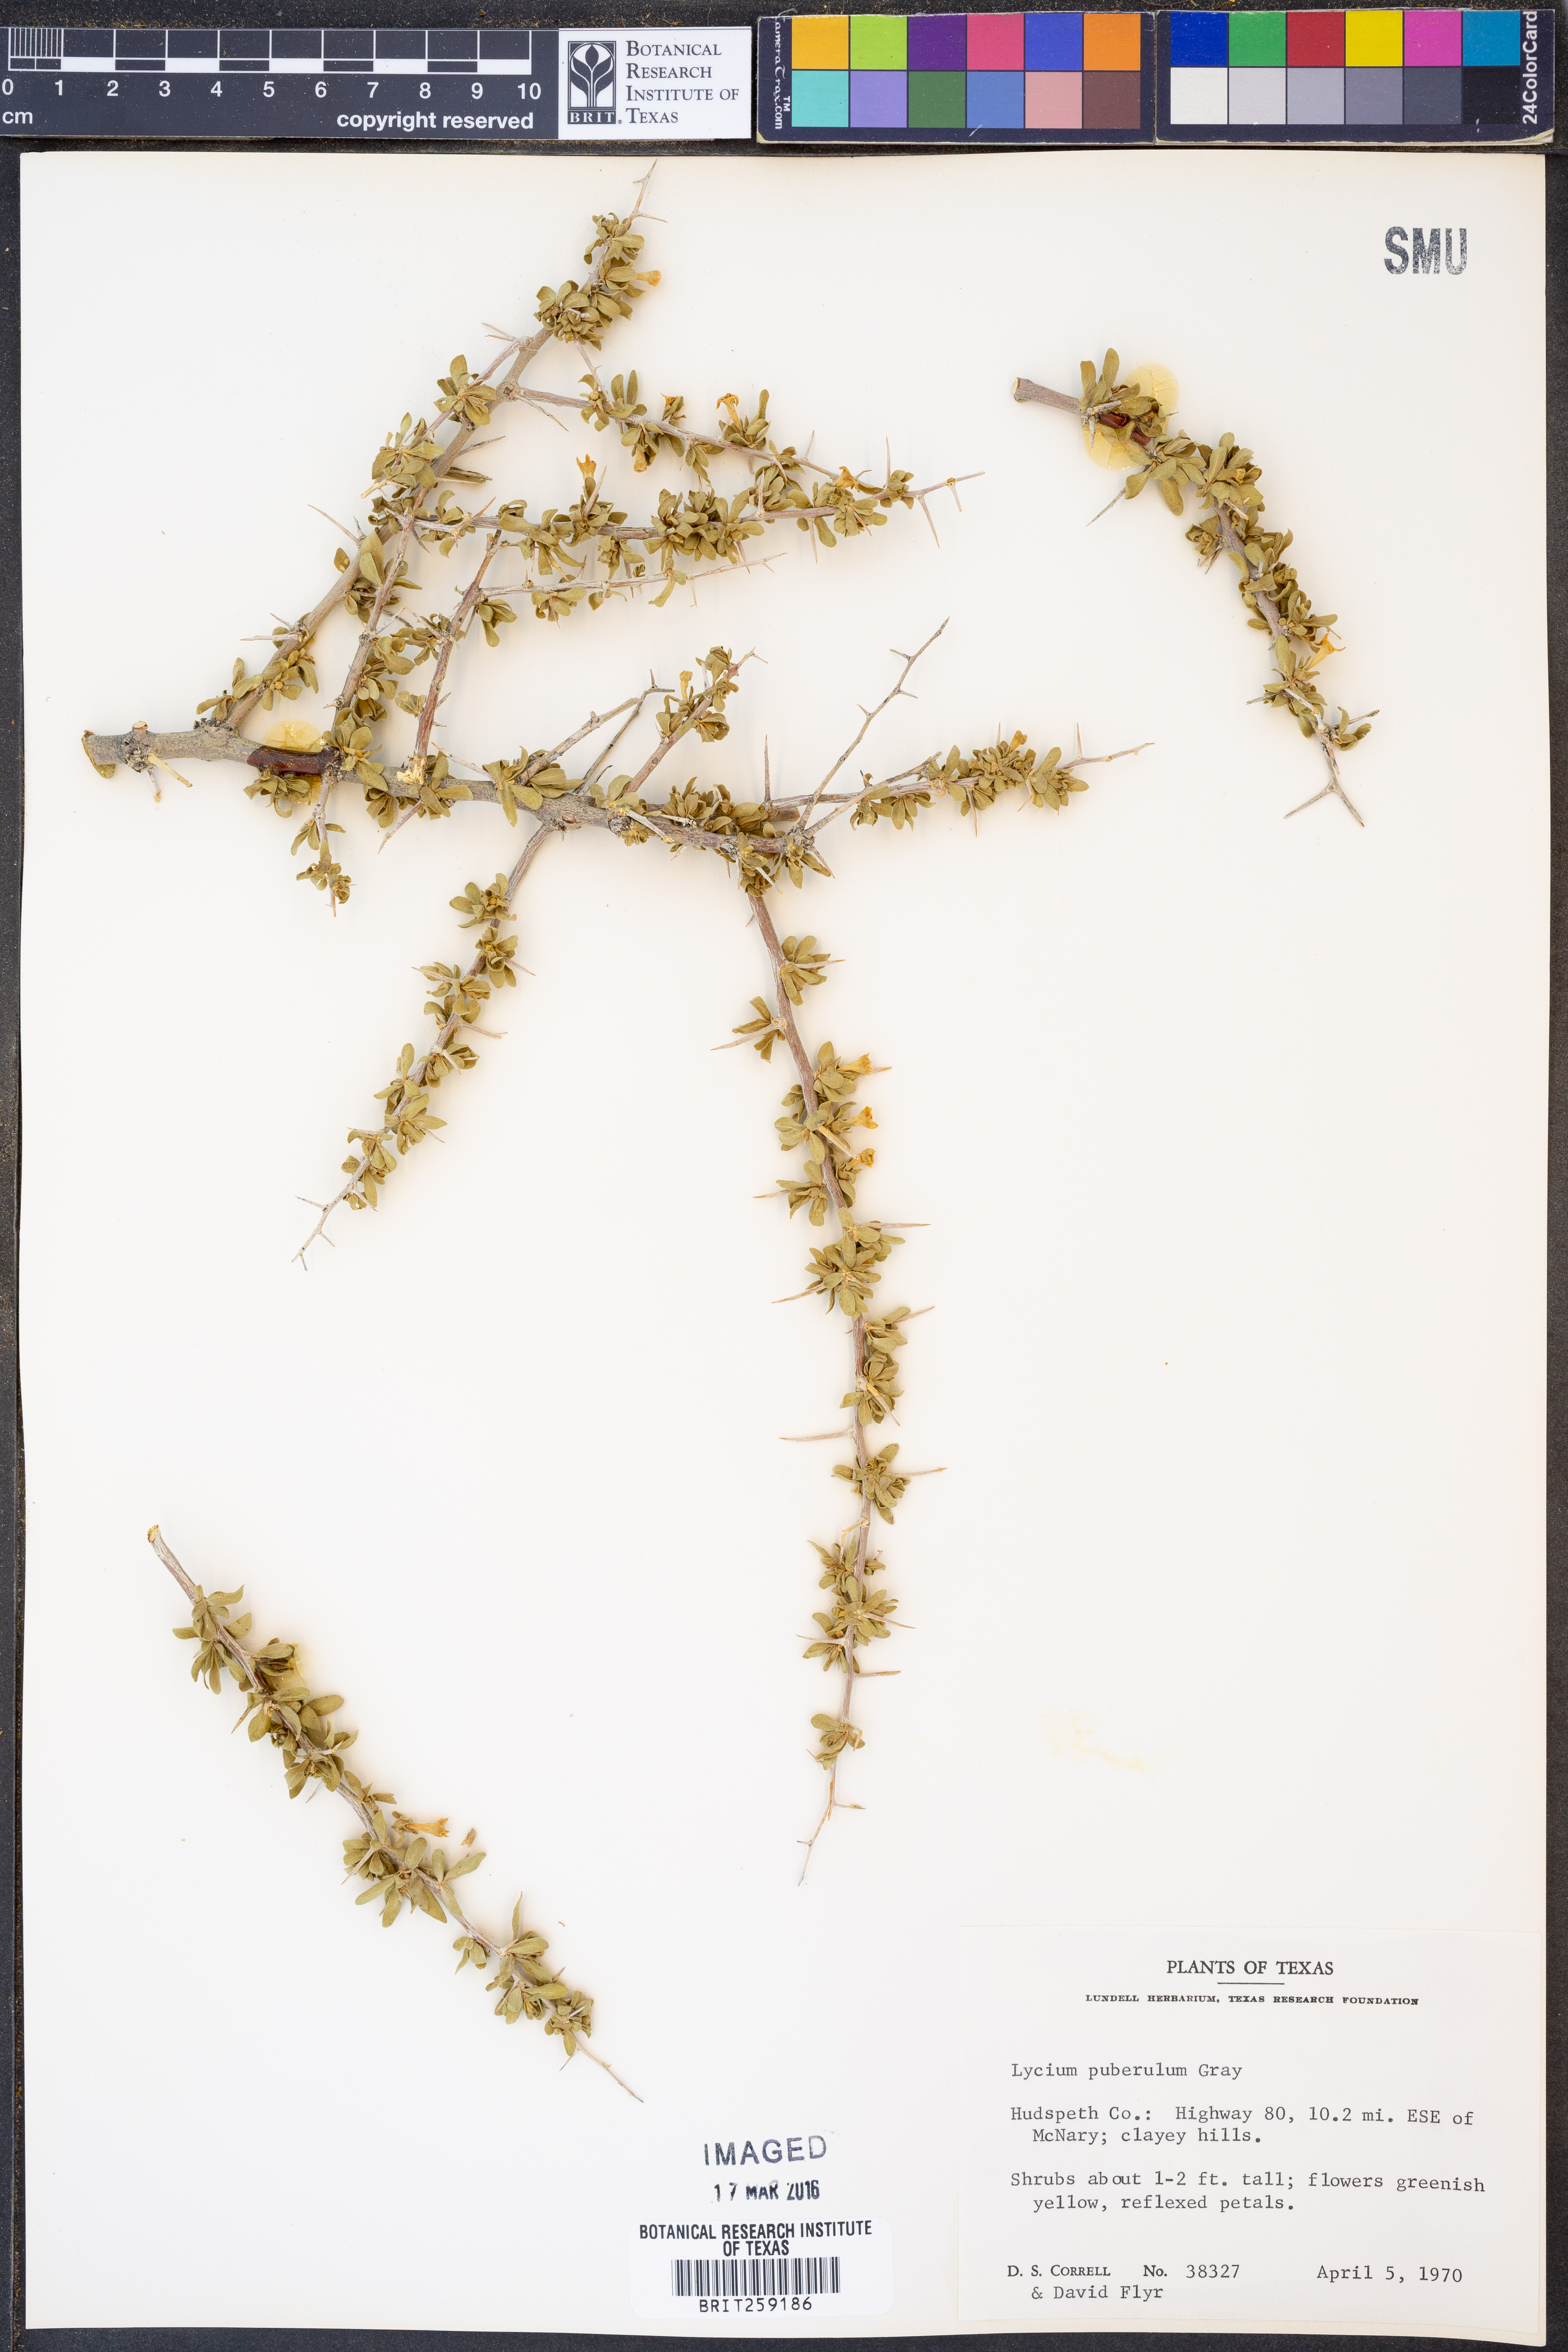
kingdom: Plantae
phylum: Tracheophyta
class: Magnoliopsida
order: Solanales
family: Solanaceae
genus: Lycium
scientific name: Lycium puberulum
